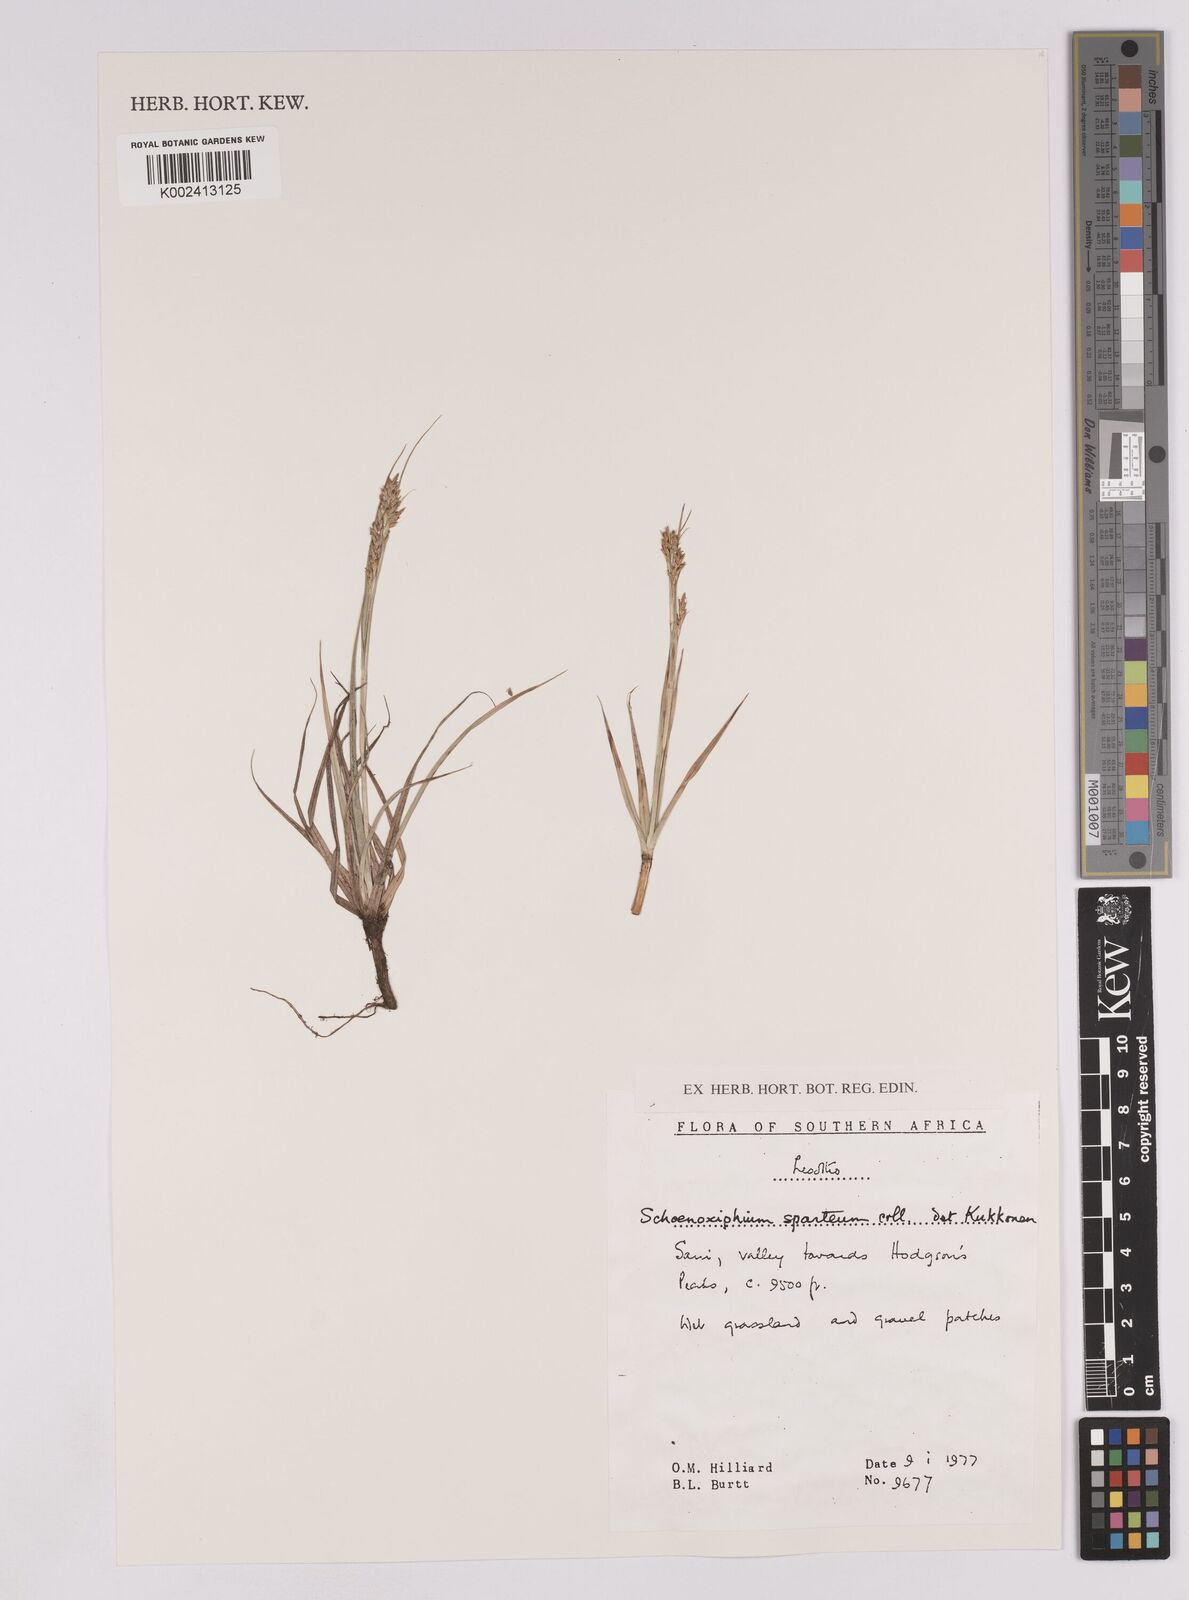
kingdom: Plantae
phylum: Tracheophyta
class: Liliopsida
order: Poales
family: Cyperaceae
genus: Carex
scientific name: Carex spartea
